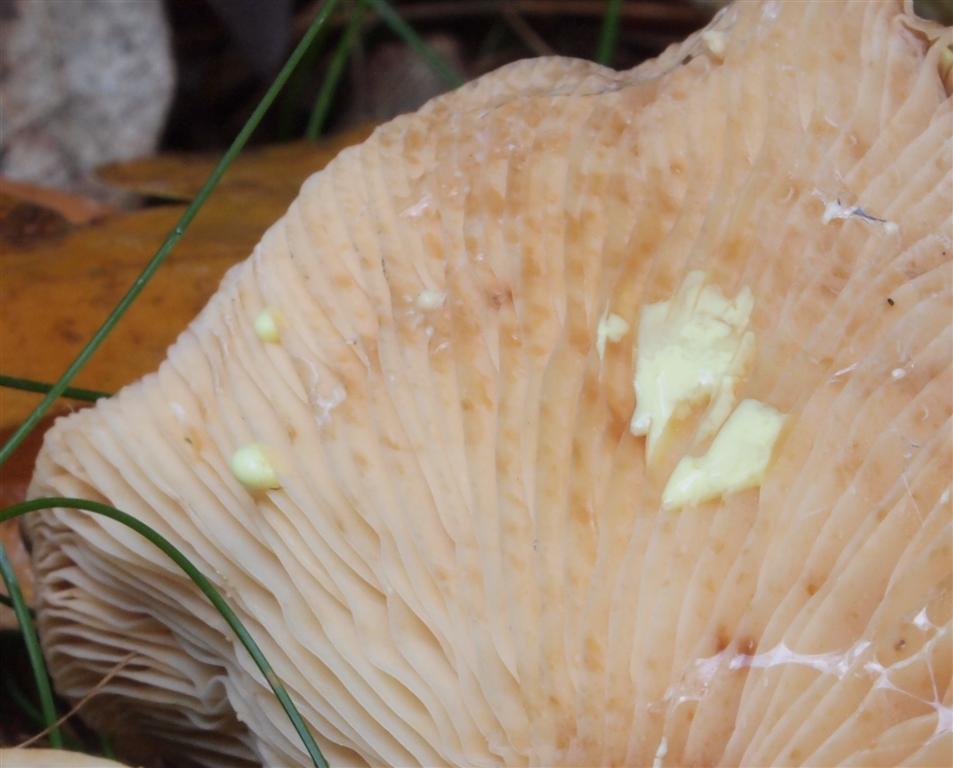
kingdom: Fungi
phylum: Basidiomycota
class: Agaricomycetes
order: Russulales
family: Russulaceae
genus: Lactarius
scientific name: Lactarius chrysorrheus
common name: svovlmælket mælkehat
